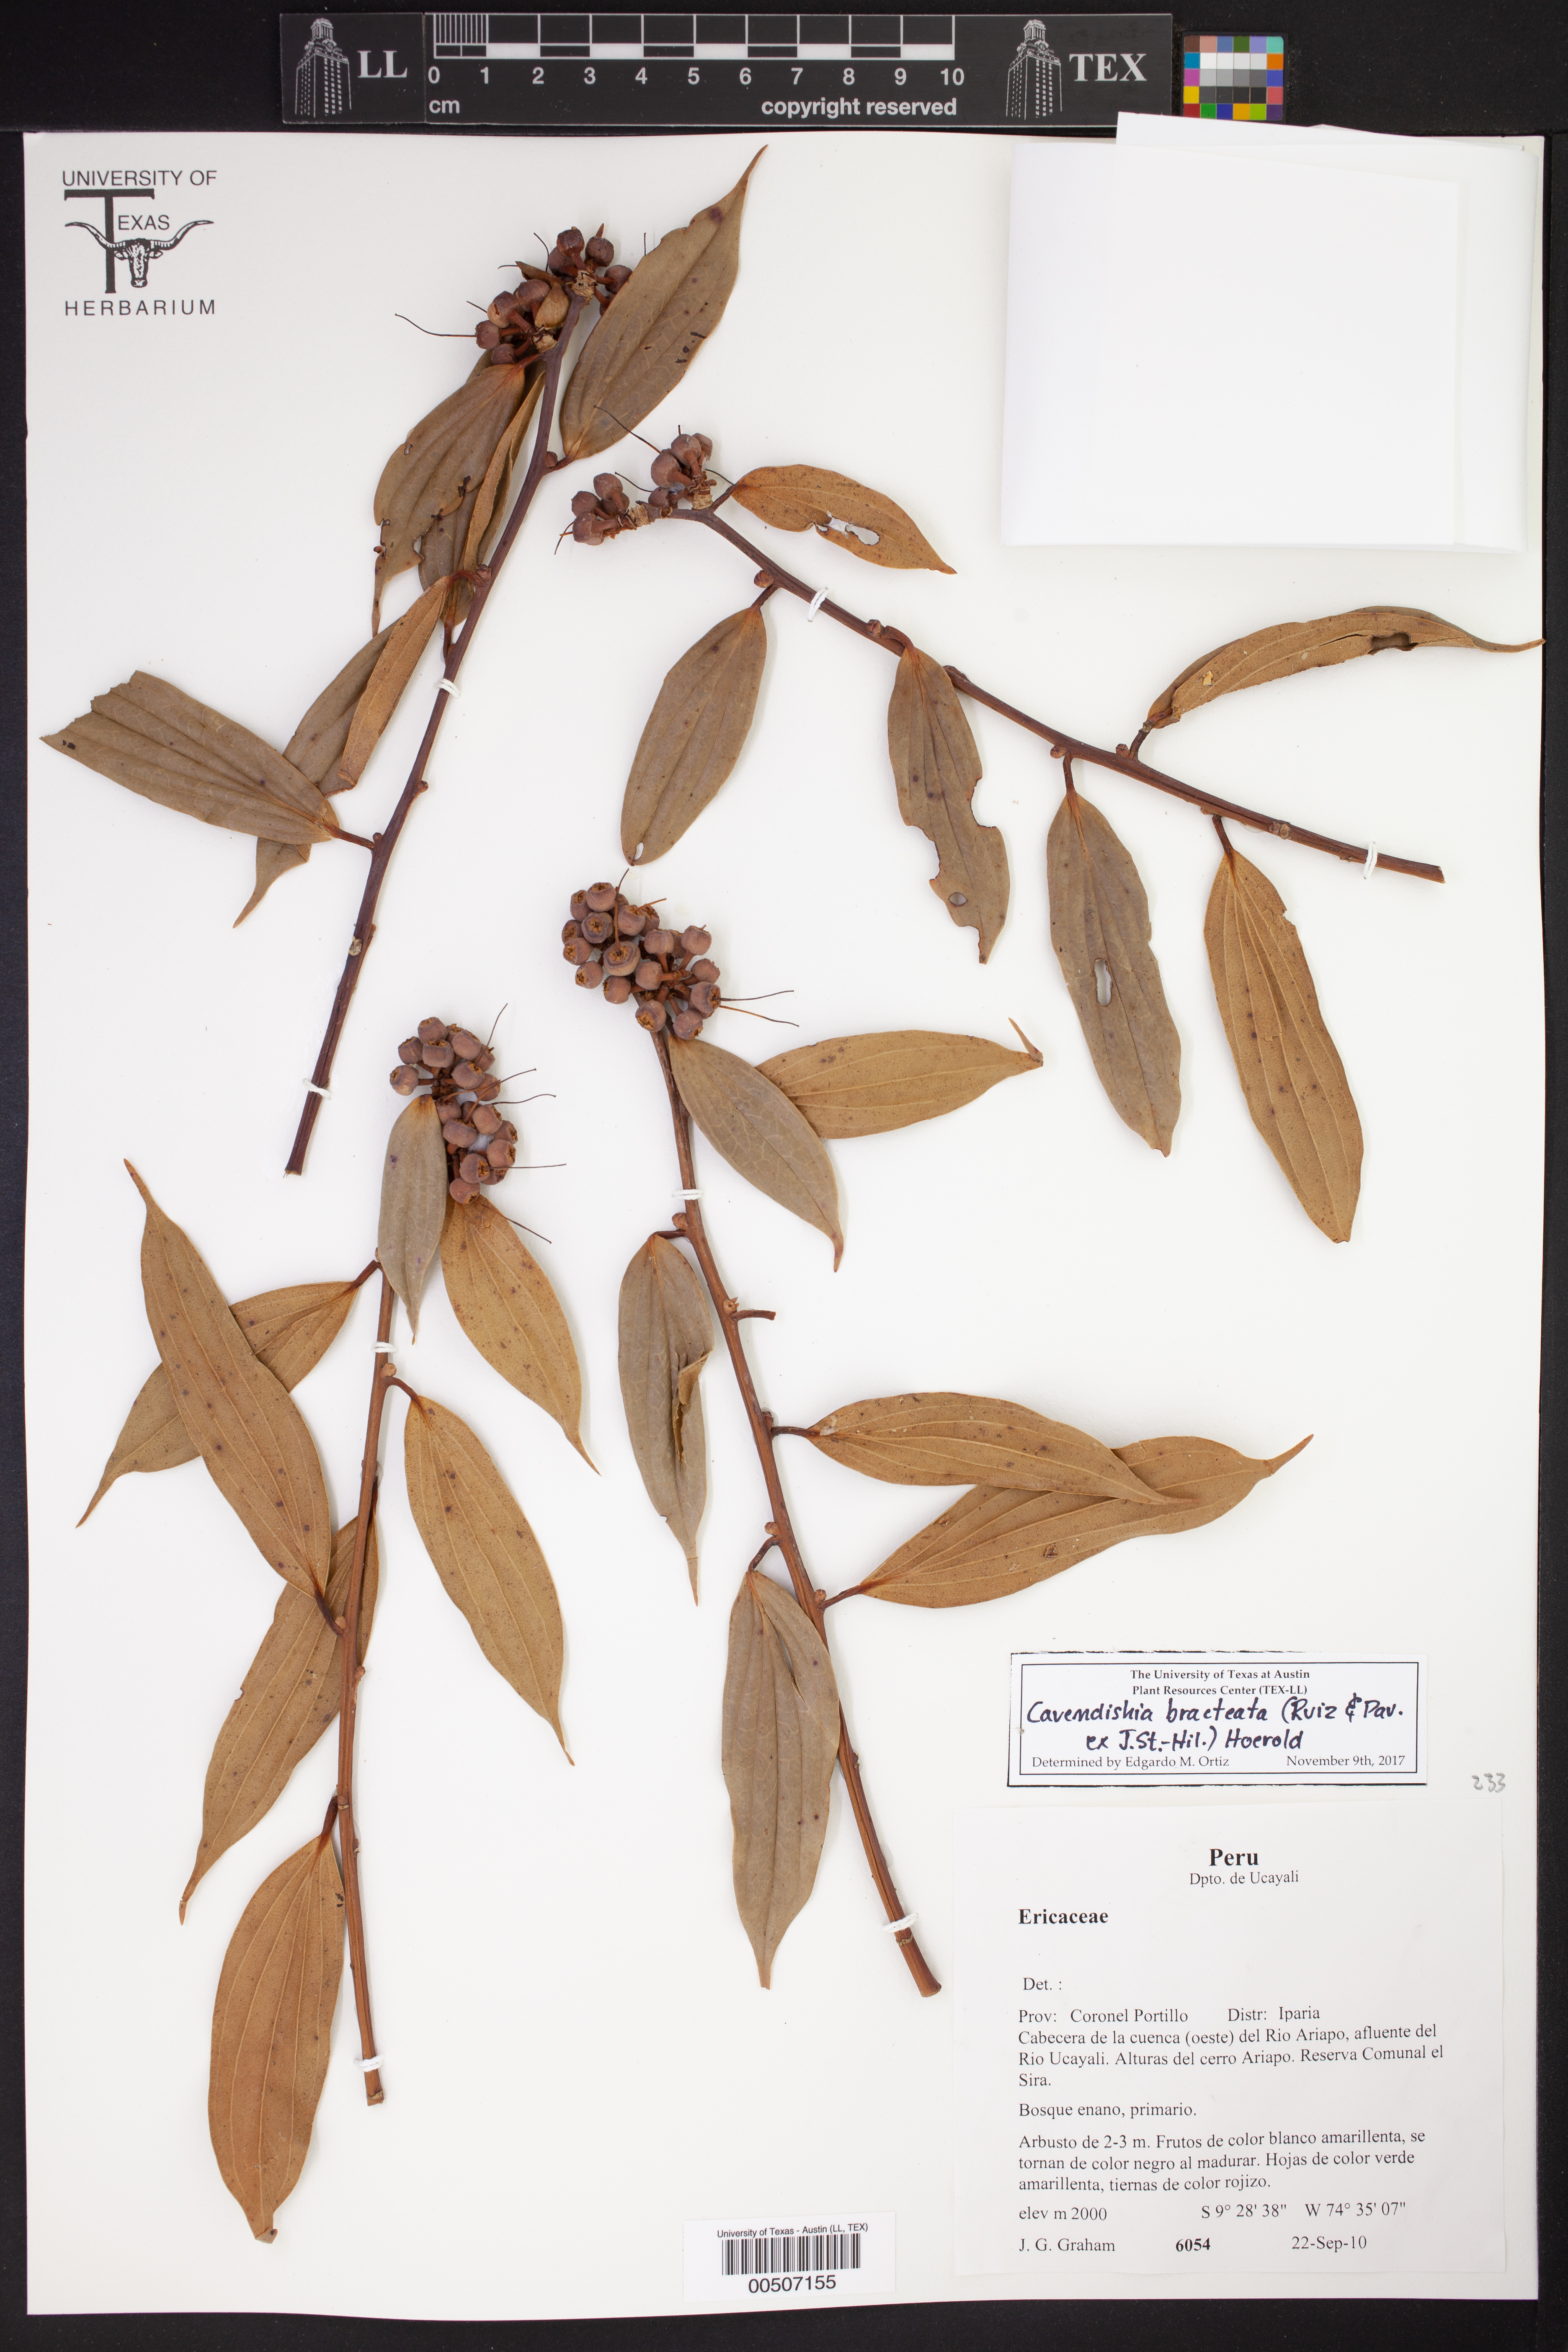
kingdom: Plantae
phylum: Tracheophyta
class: Magnoliopsida
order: Ericales
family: Ericaceae
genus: Cavendishia
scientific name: Cavendishia bracteata
